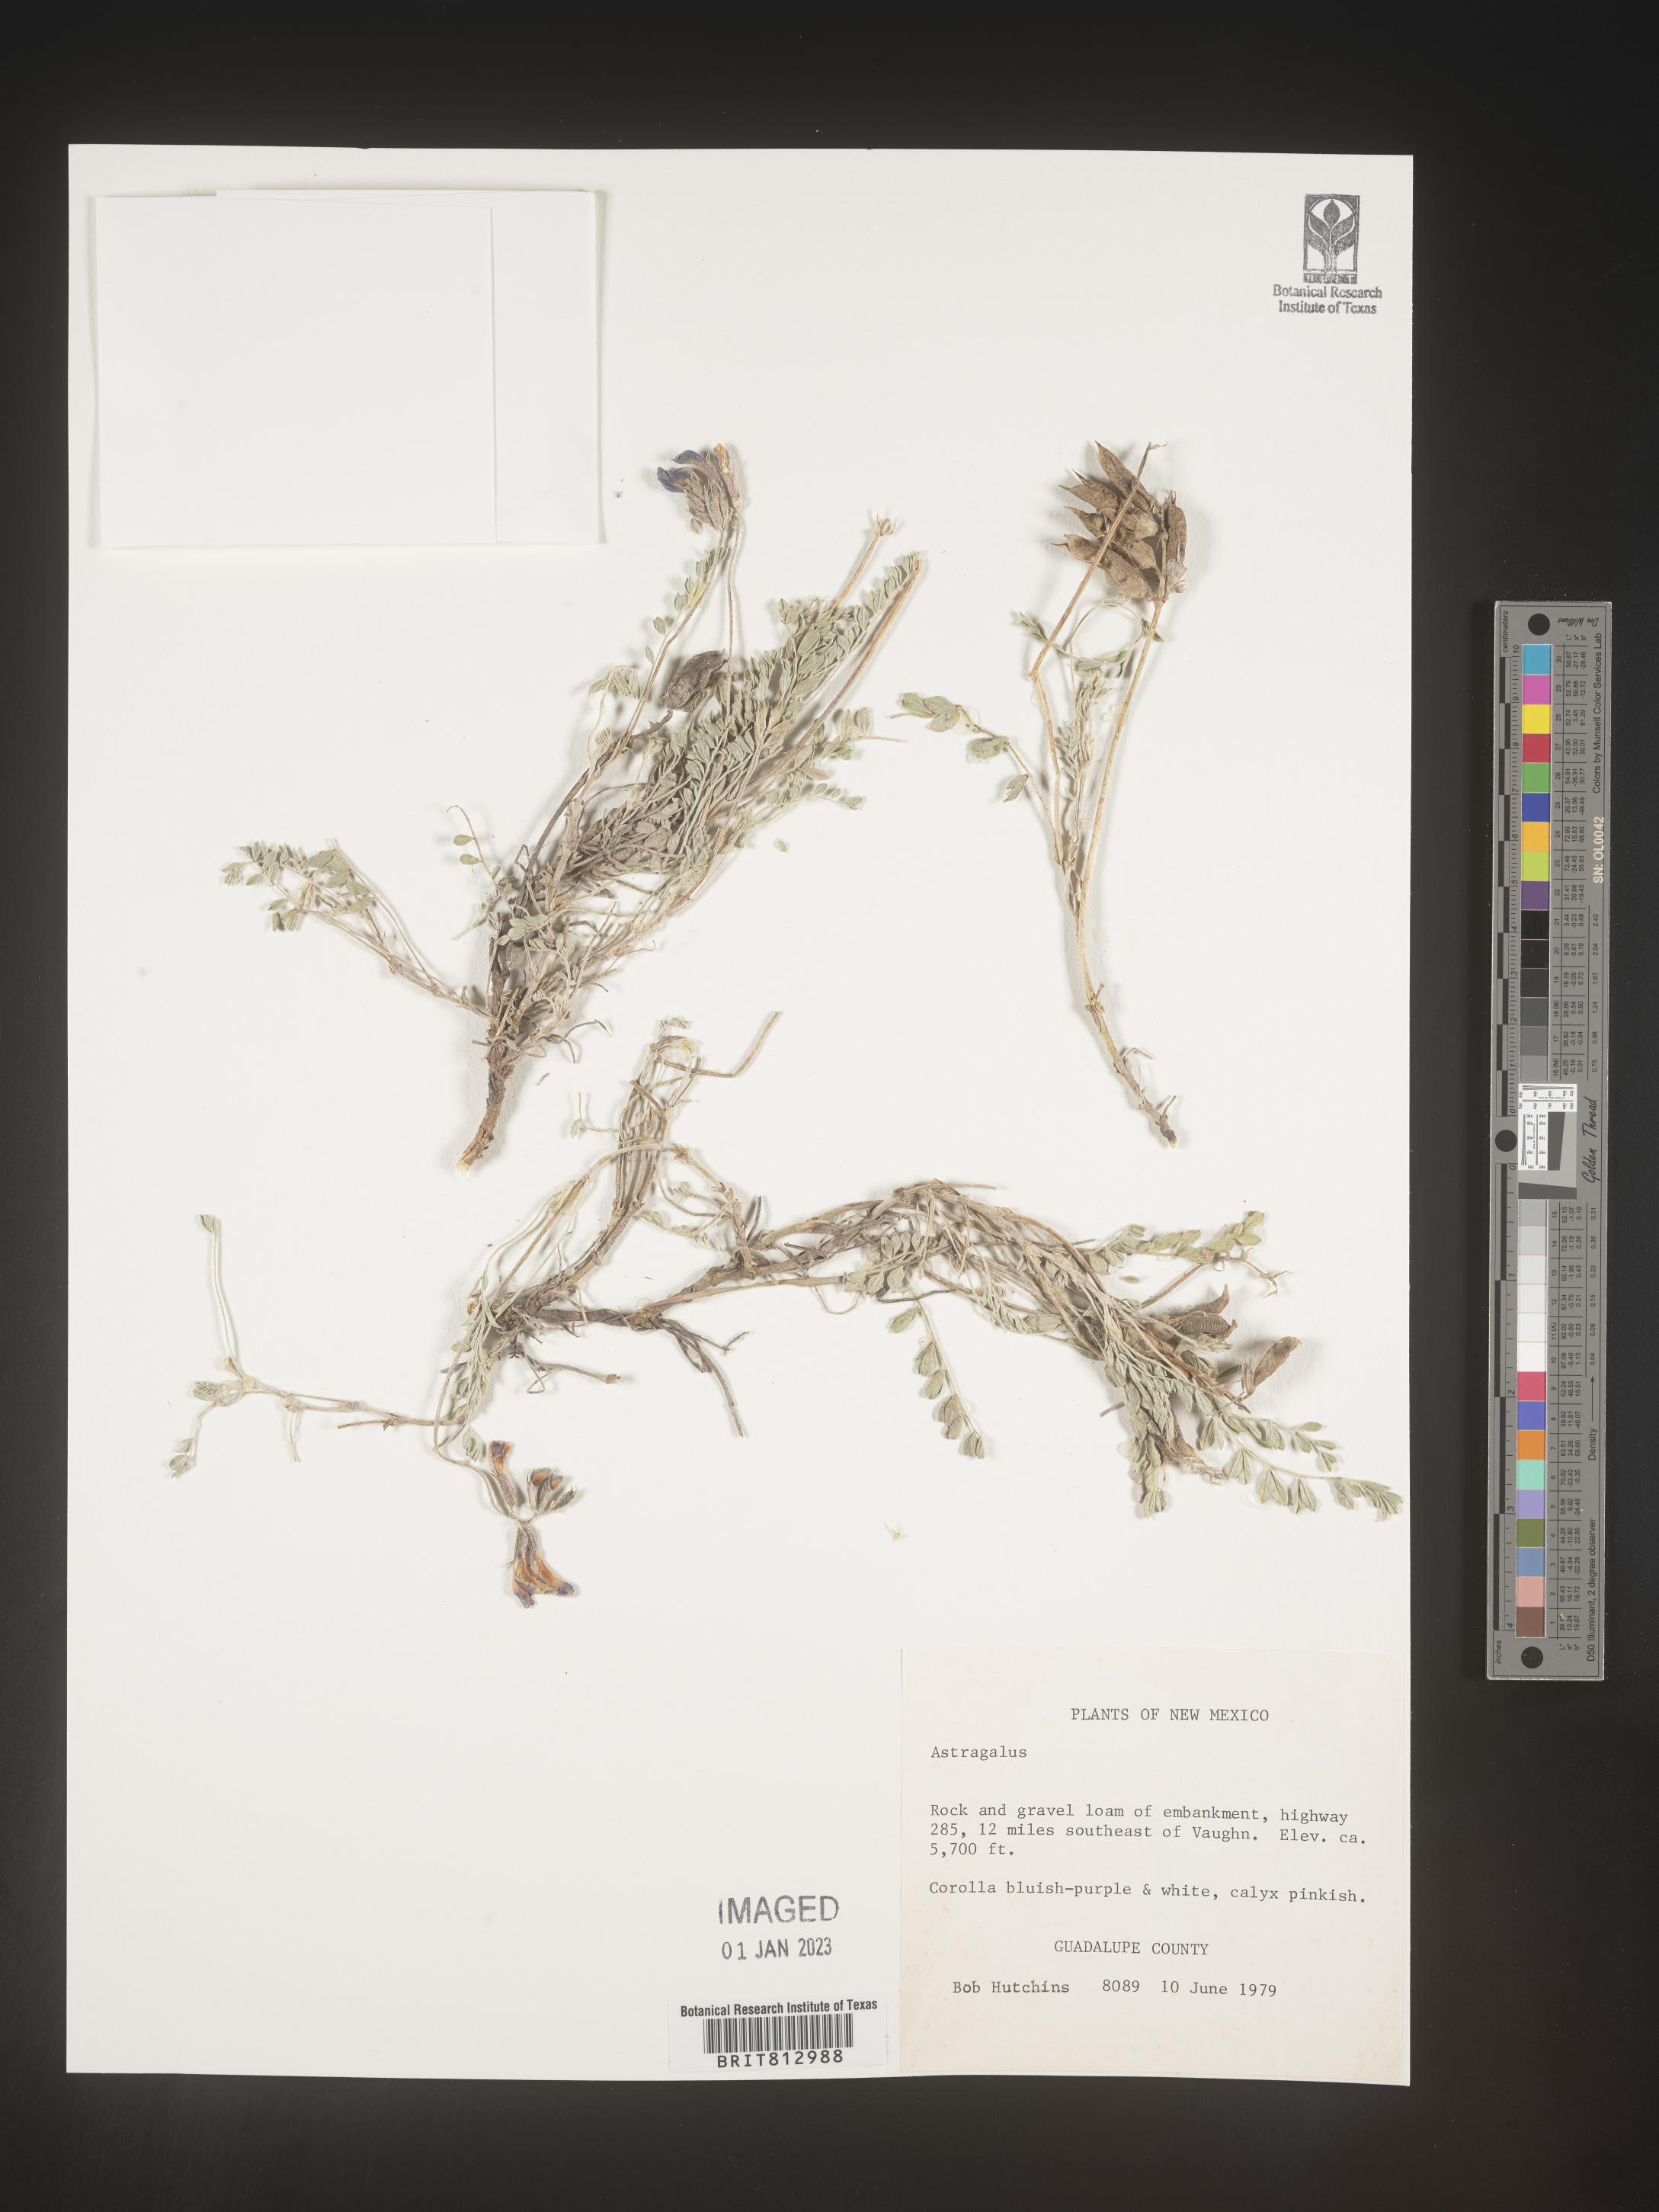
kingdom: Plantae
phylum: Tracheophyta
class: Magnoliopsida
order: Fabales
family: Fabaceae
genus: Astragalus
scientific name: Astragalus
